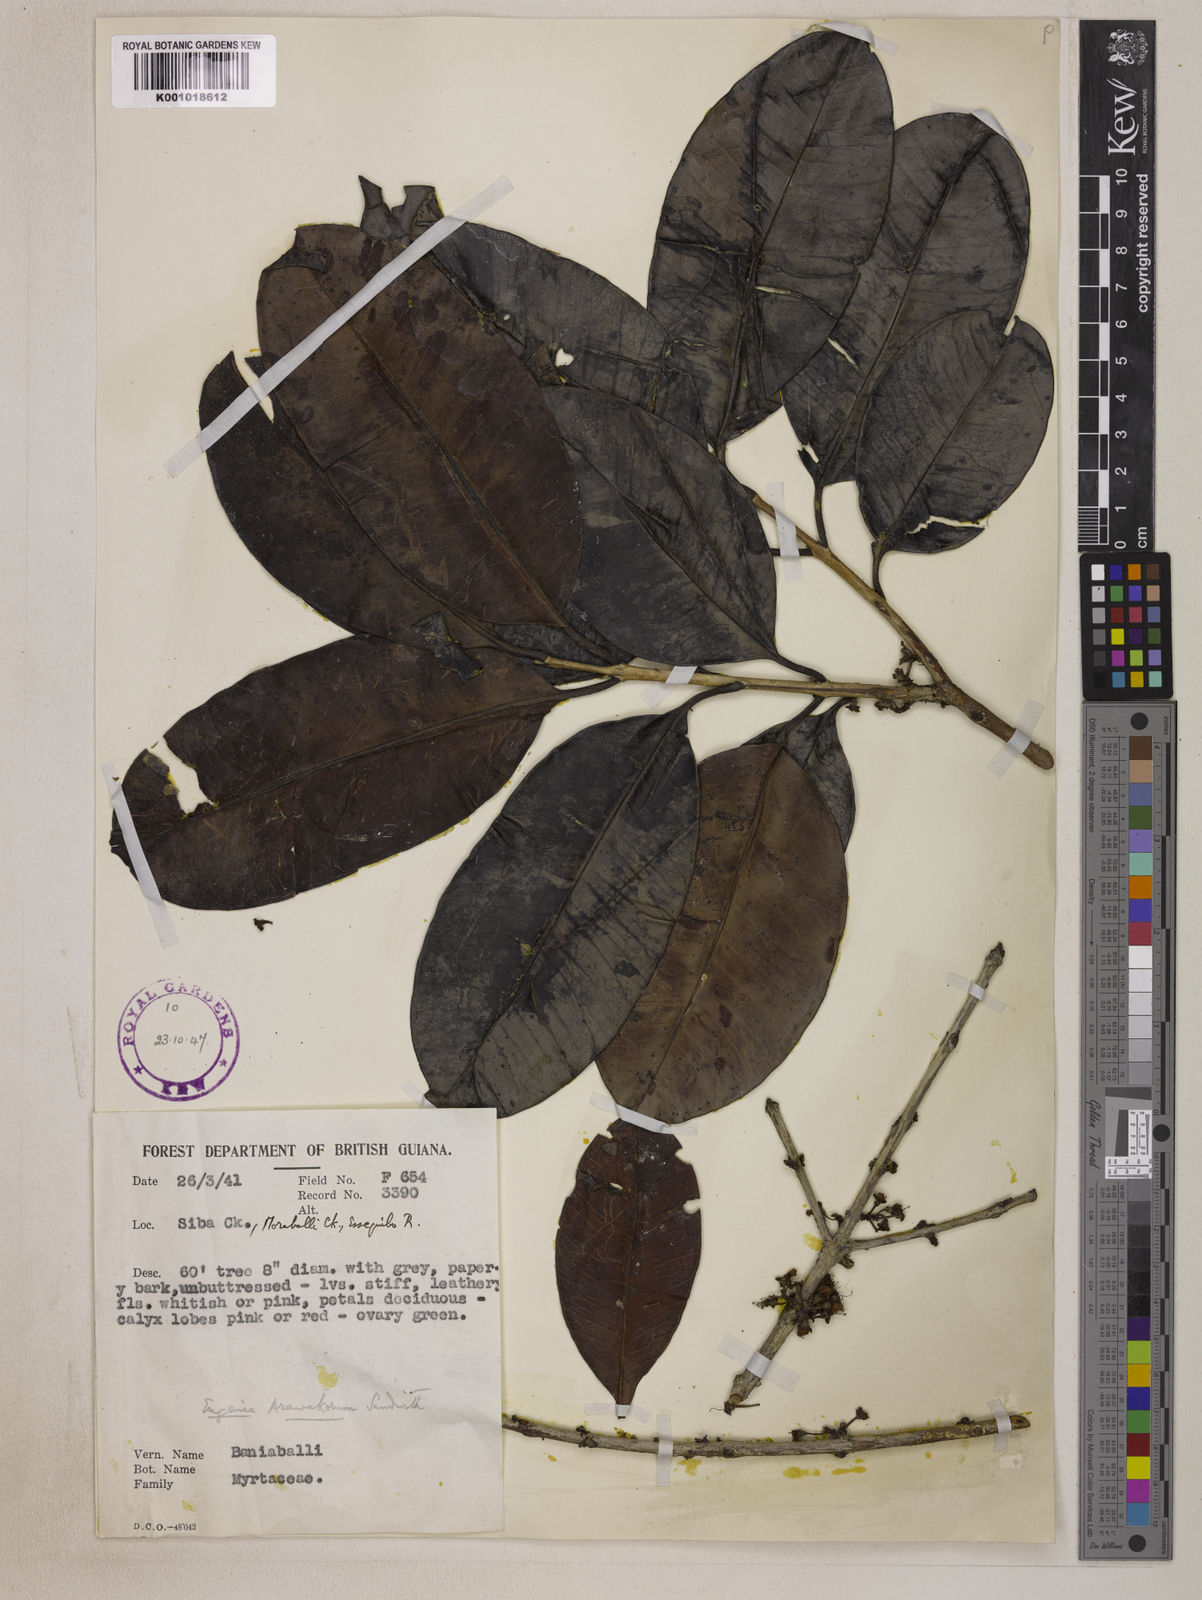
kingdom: Plantae
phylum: Tracheophyta
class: Magnoliopsida
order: Myrtales
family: Myrtaceae
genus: Eugenia
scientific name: Eugenia arawakorum
